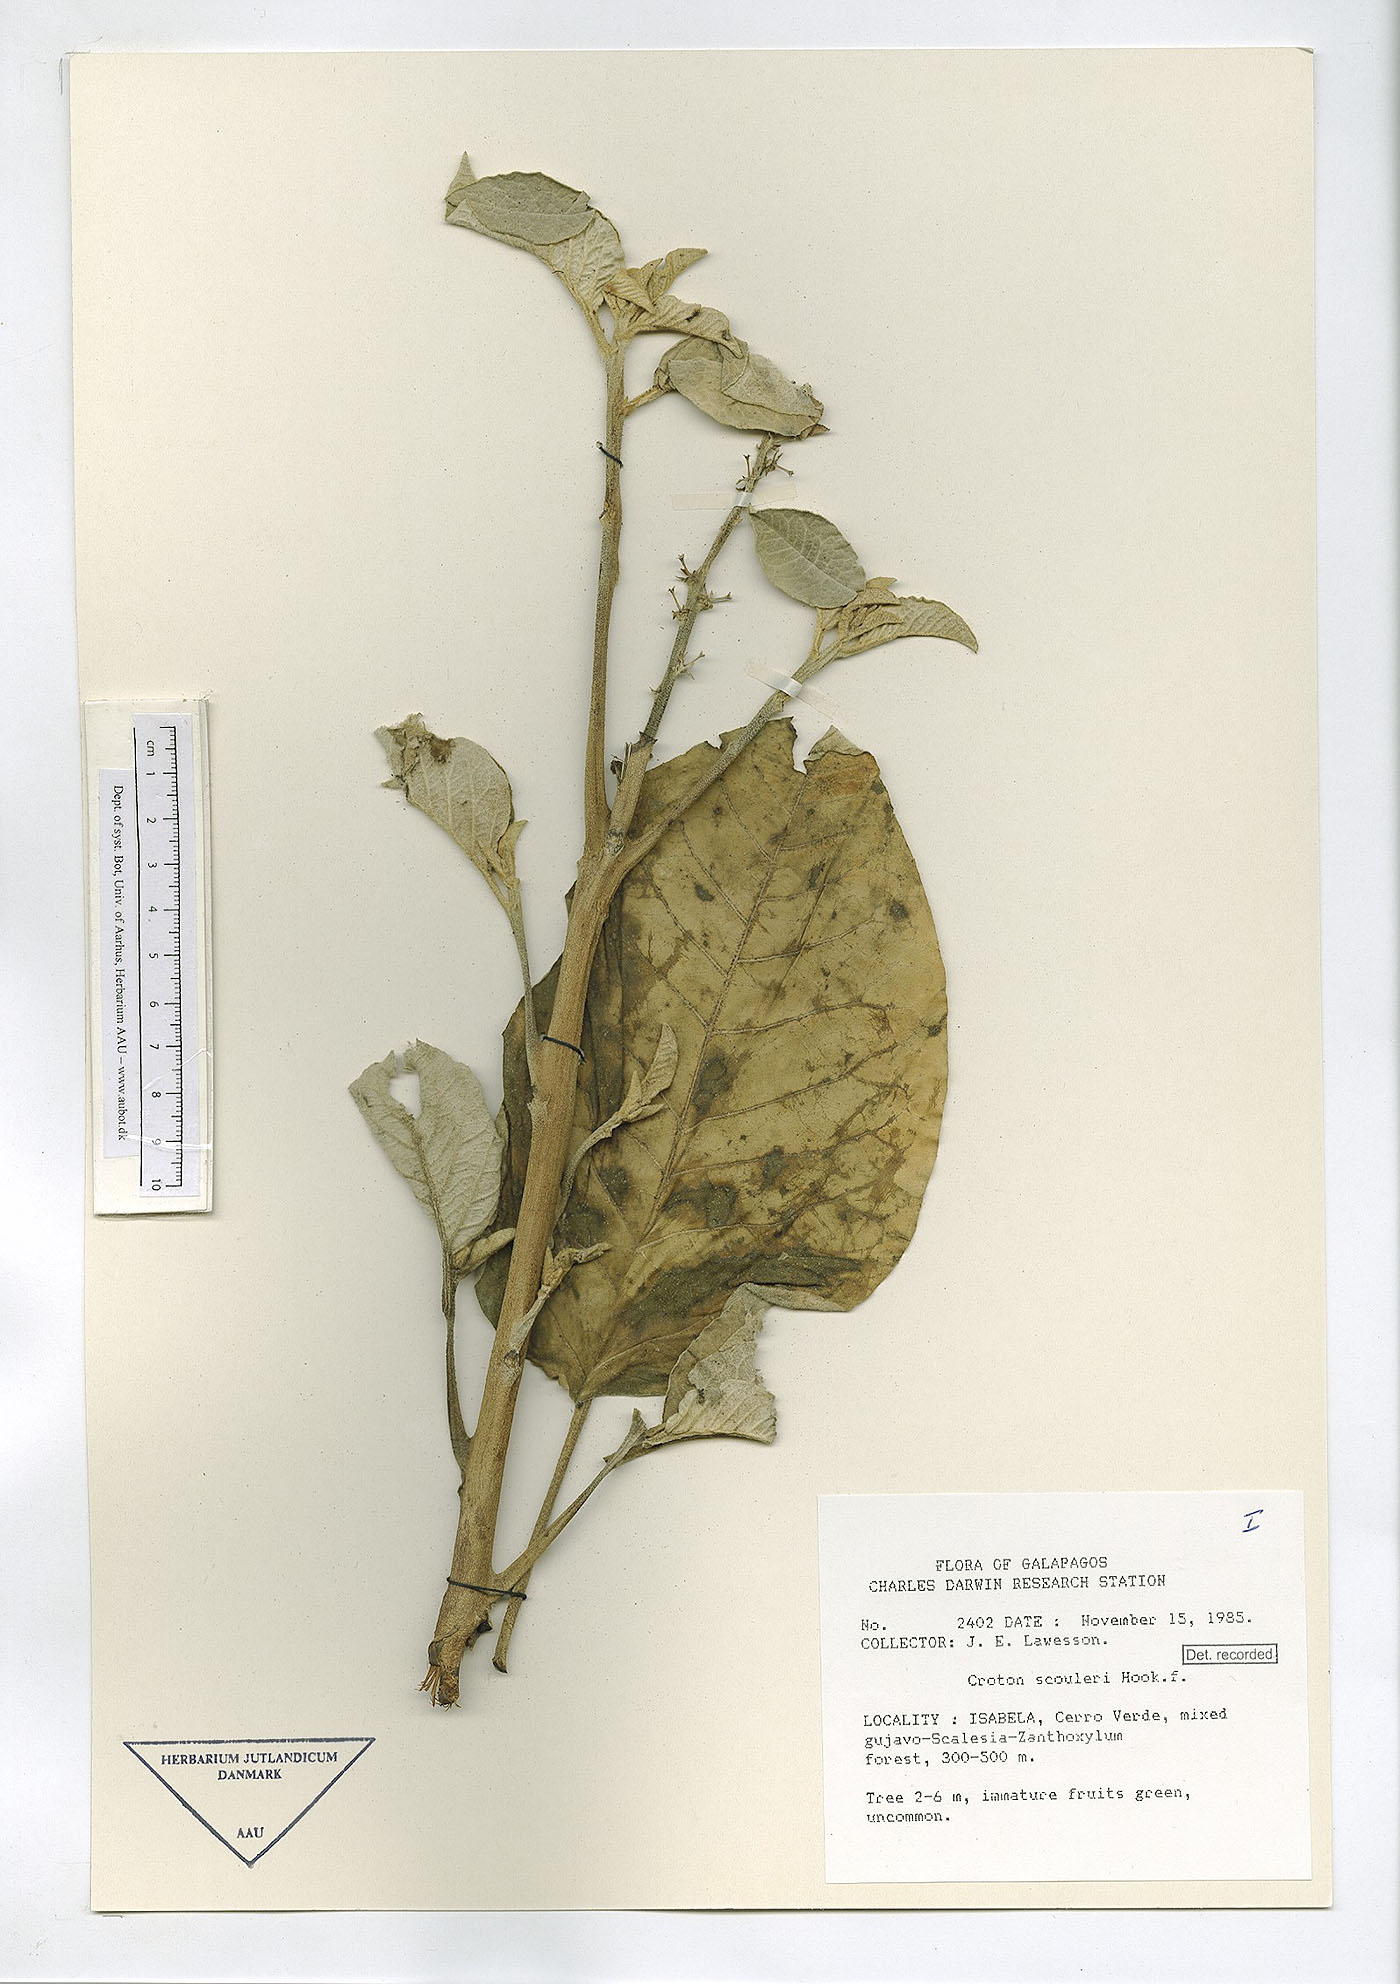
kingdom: Plantae
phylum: Tracheophyta
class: Magnoliopsida
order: Malpighiales
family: Euphorbiaceae
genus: Croton
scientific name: Croton scouleri
